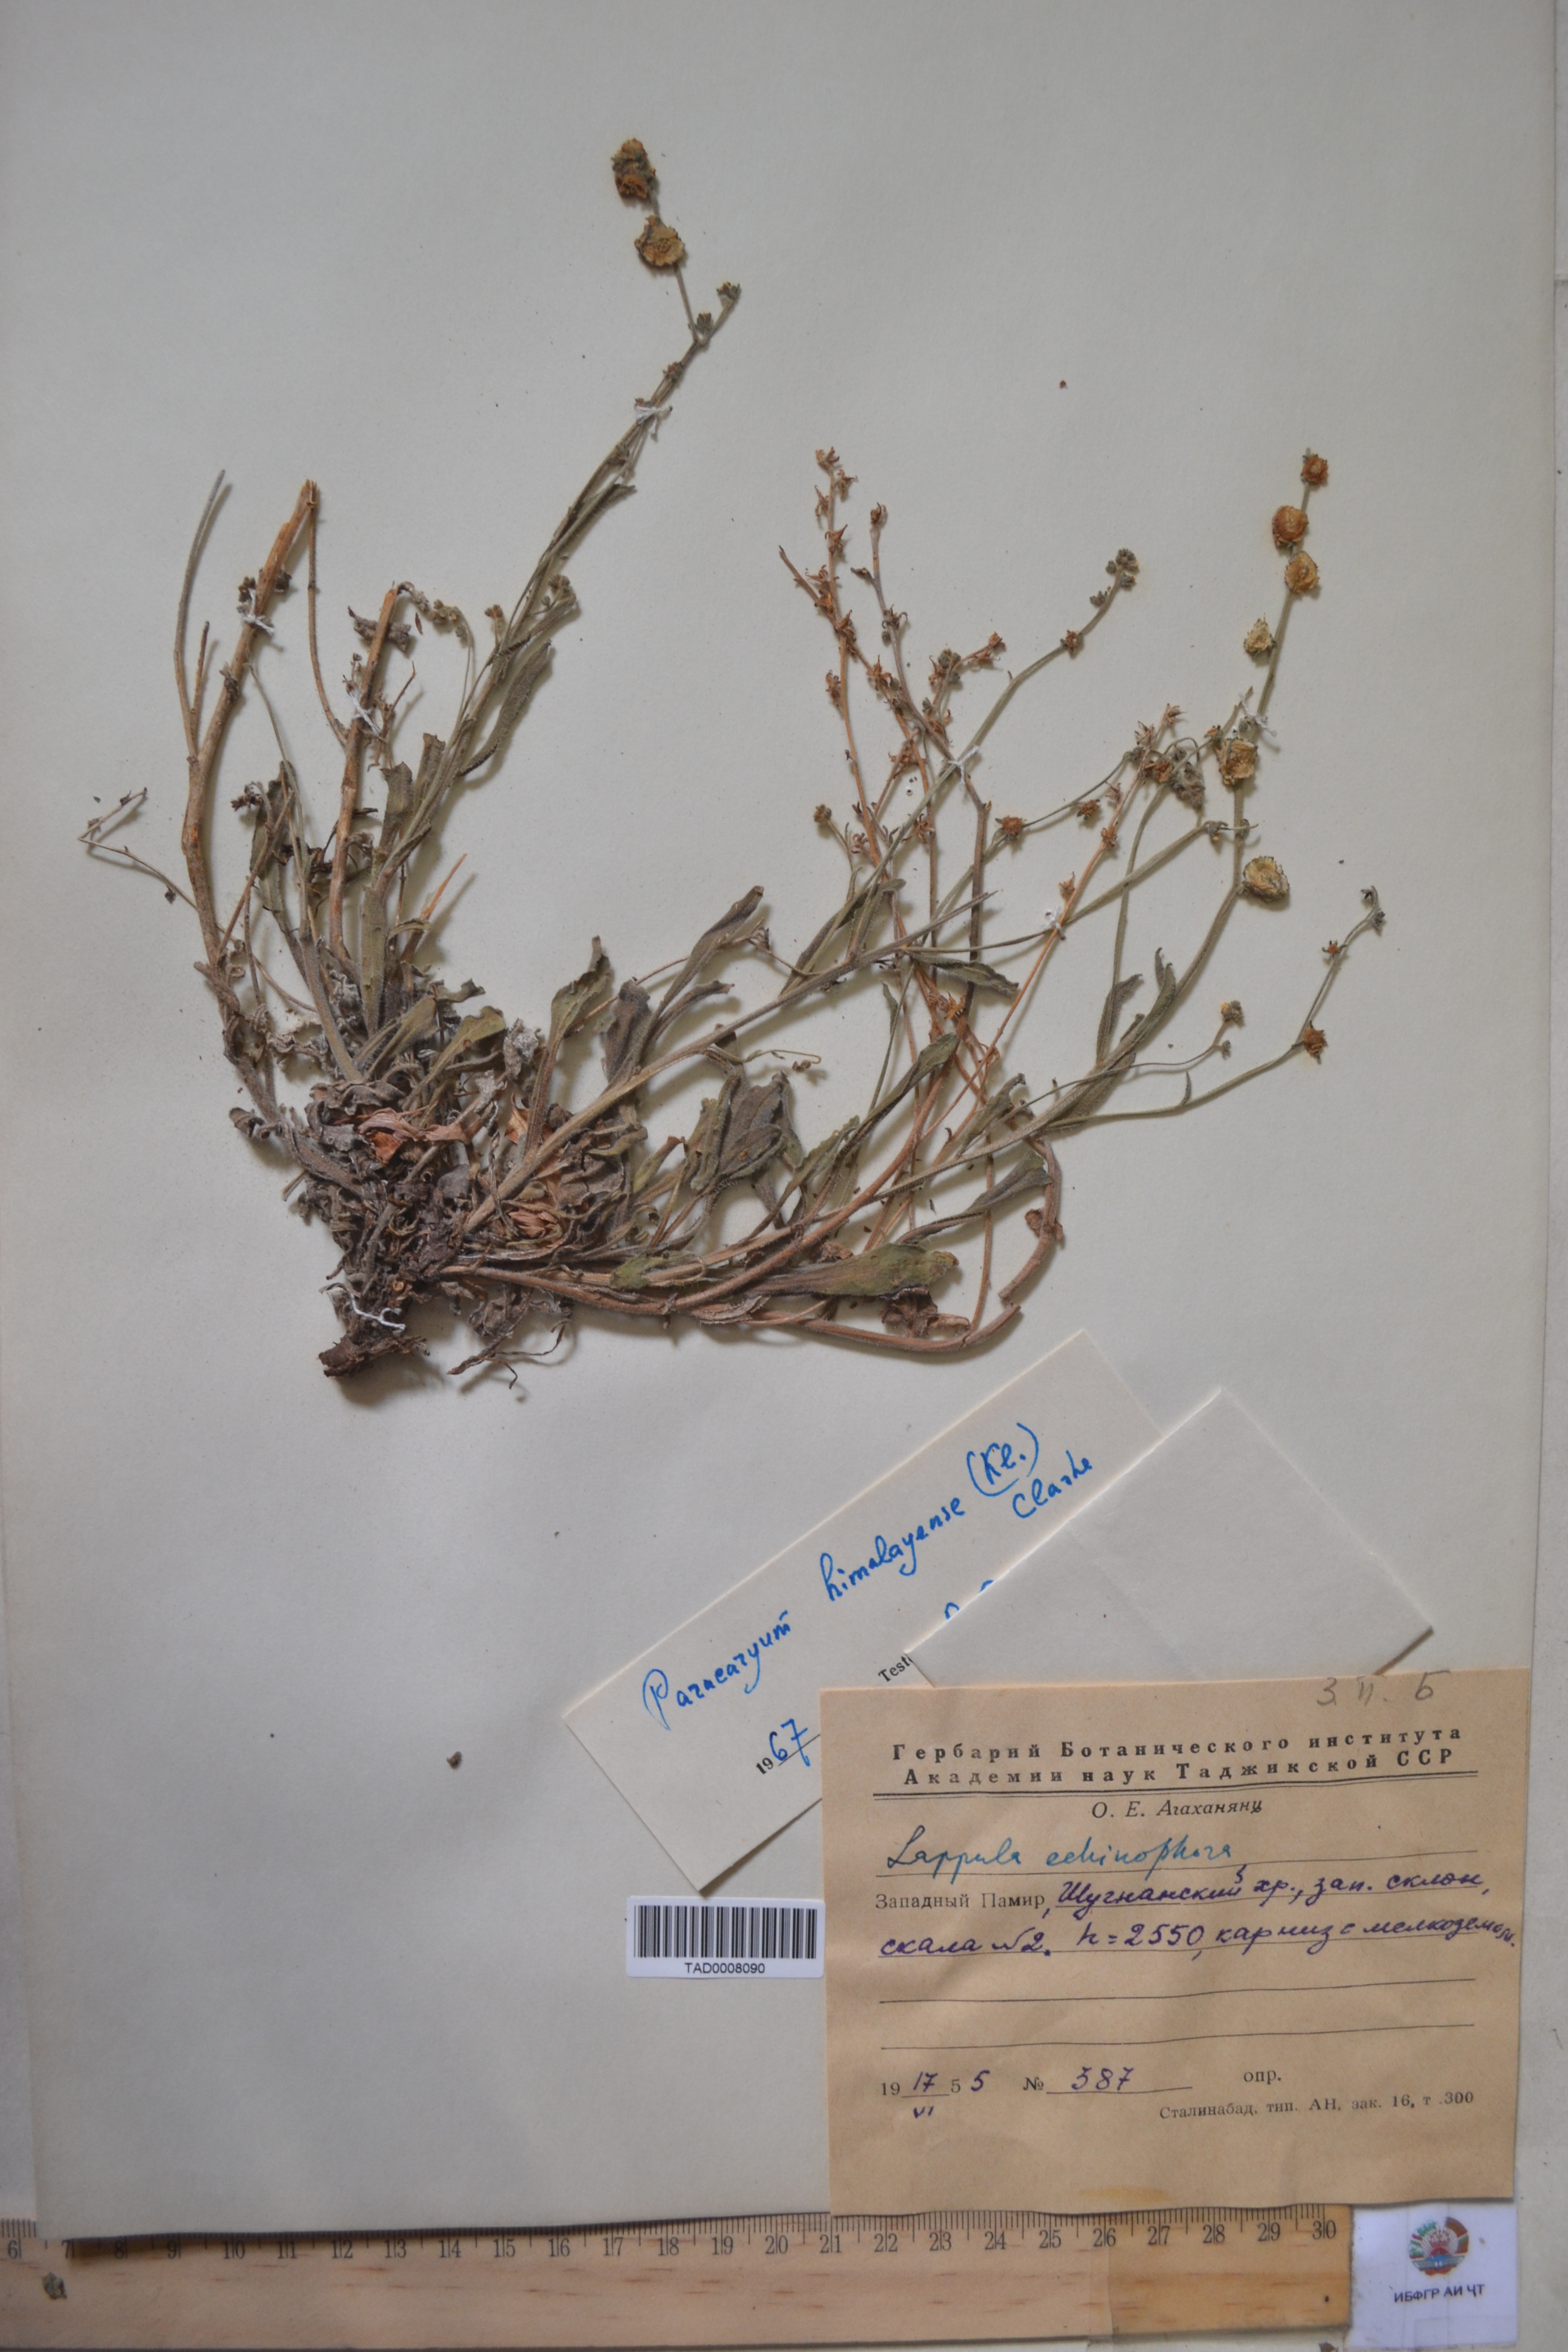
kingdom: Plantae
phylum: Tracheophyta
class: Magnoliopsida
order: Boraginales
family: Boraginaceae
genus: Paracaryum
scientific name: Paracaryum himalayense
